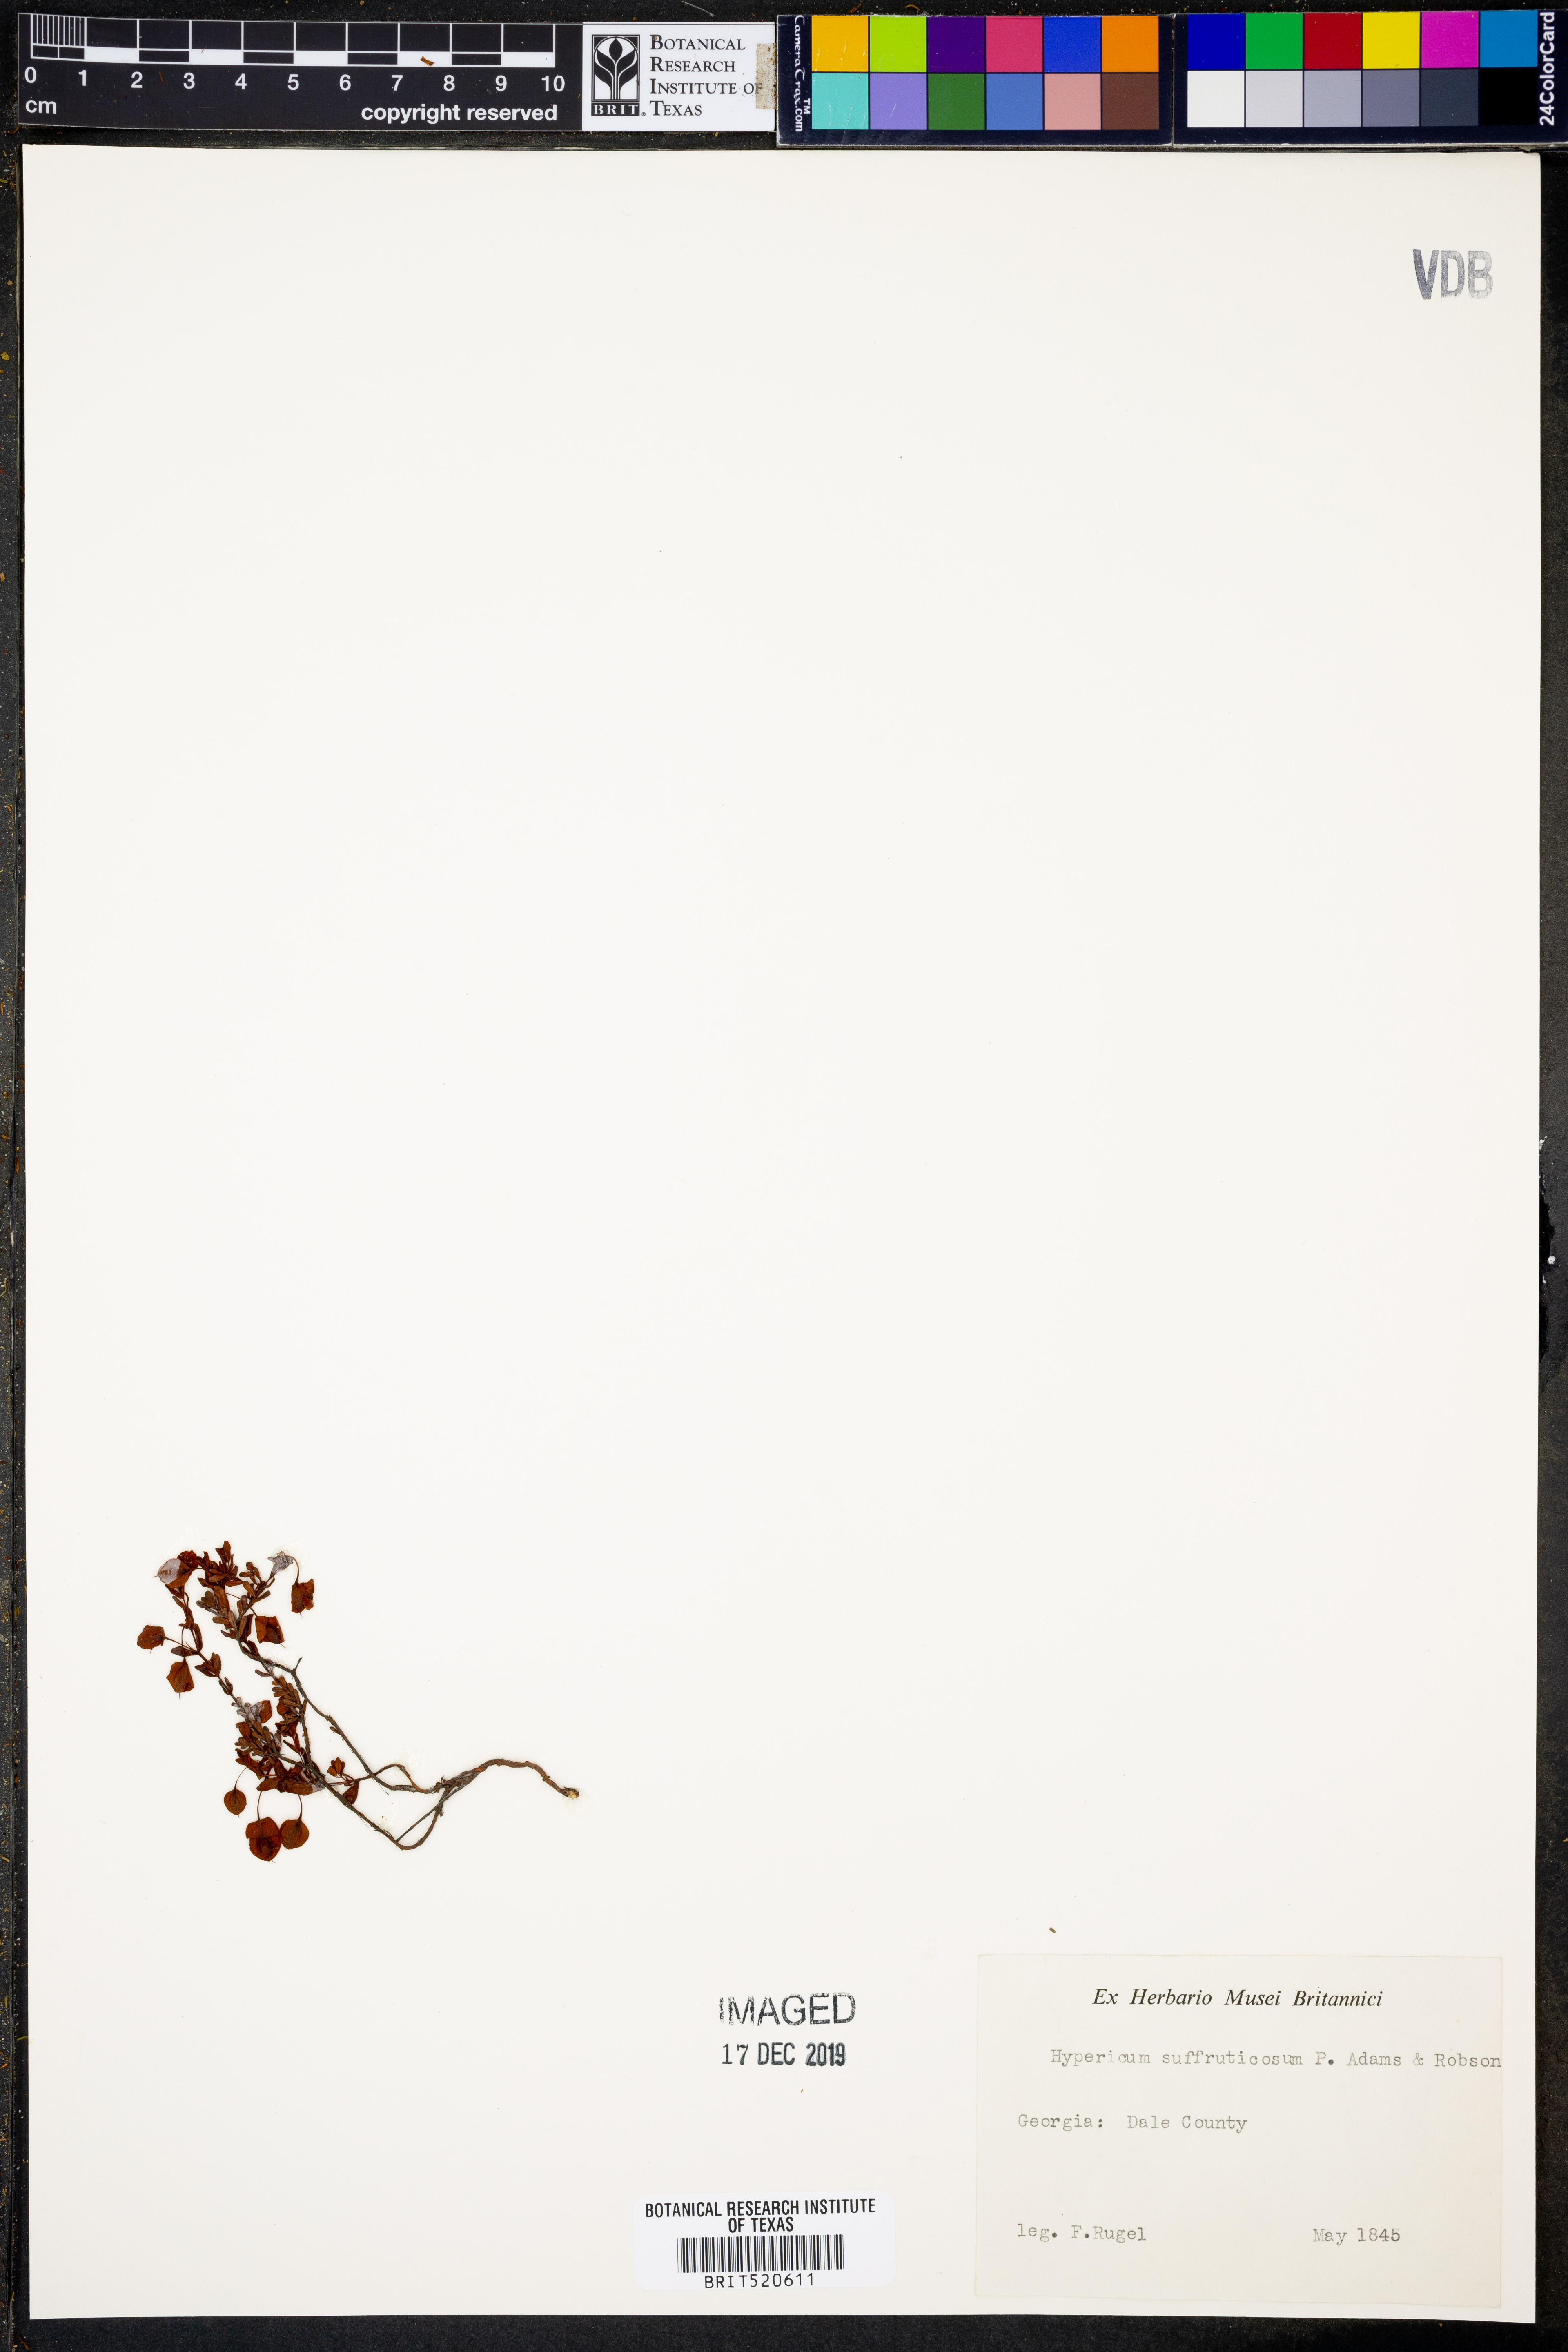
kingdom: Plantae
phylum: Tracheophyta
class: Magnoliopsida
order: Malpighiales
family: Hypericaceae
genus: Hypericum
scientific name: Hypericum suffruticosum
